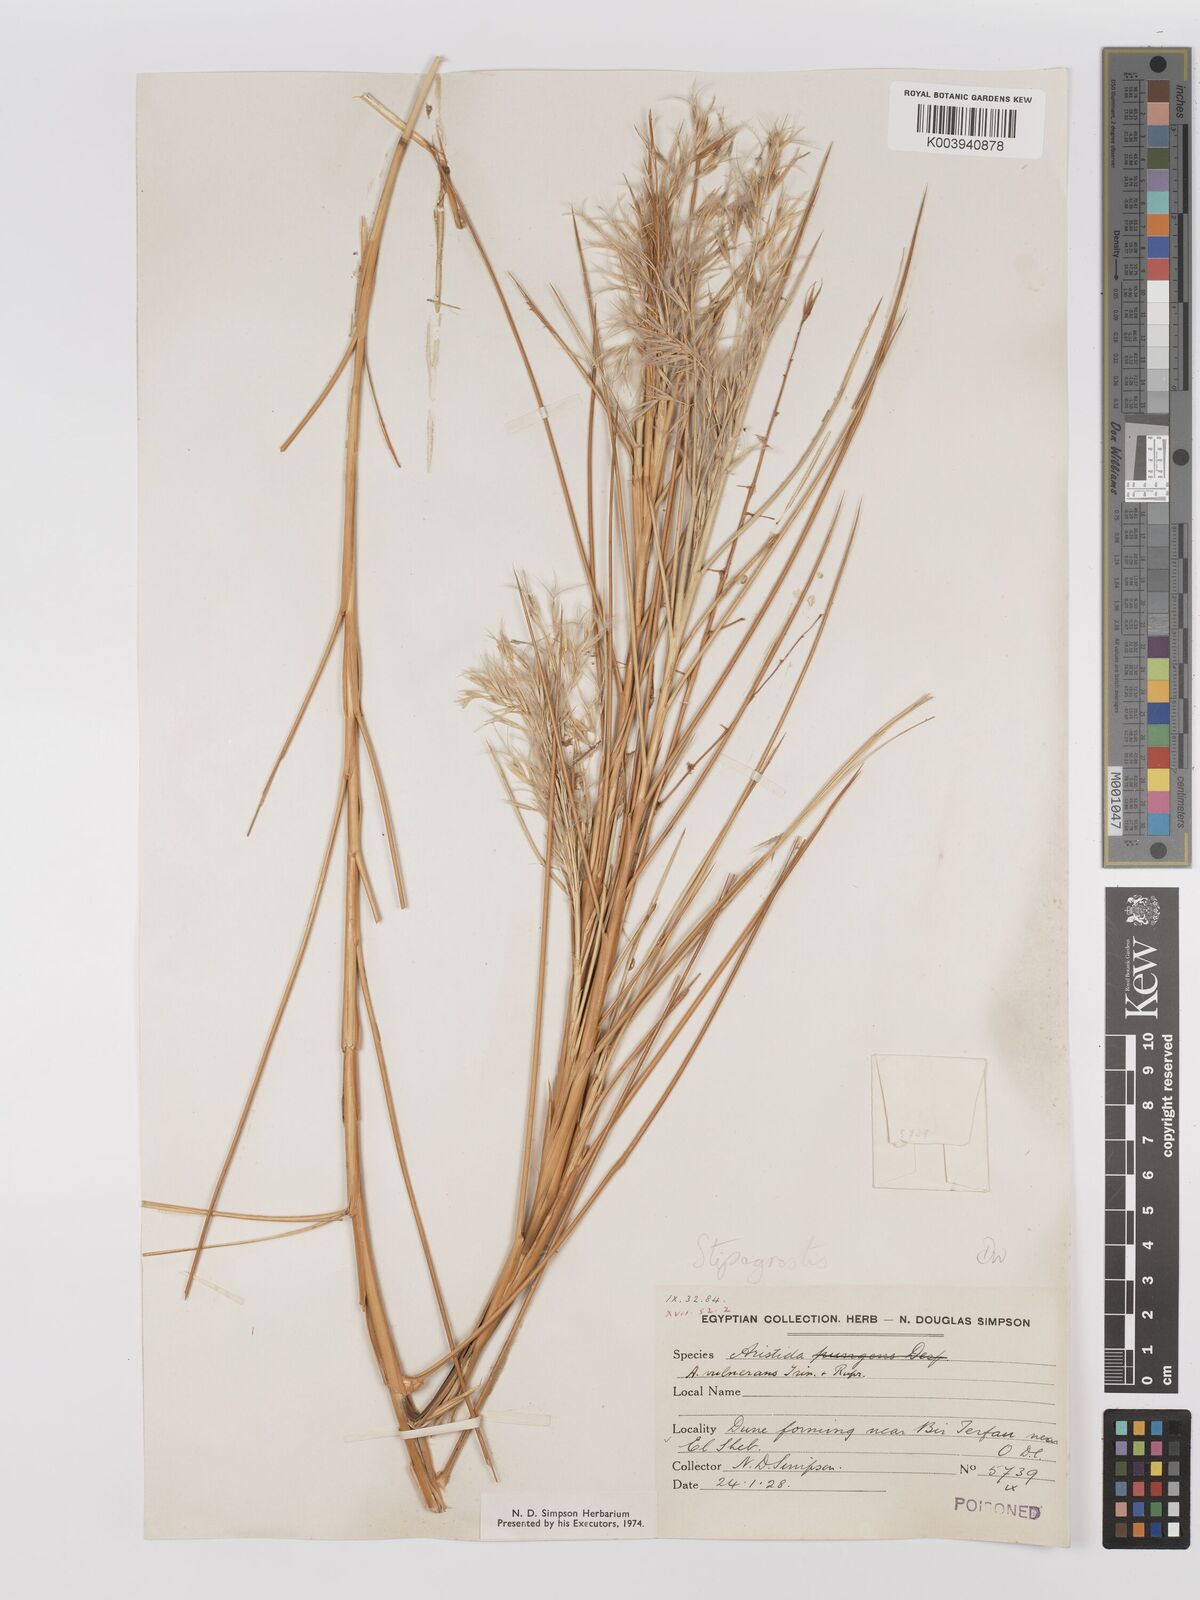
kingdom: Plantae
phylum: Tracheophyta
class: Liliopsida
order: Poales
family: Poaceae
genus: Stipagrostis
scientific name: Stipagrostis vulnerans
